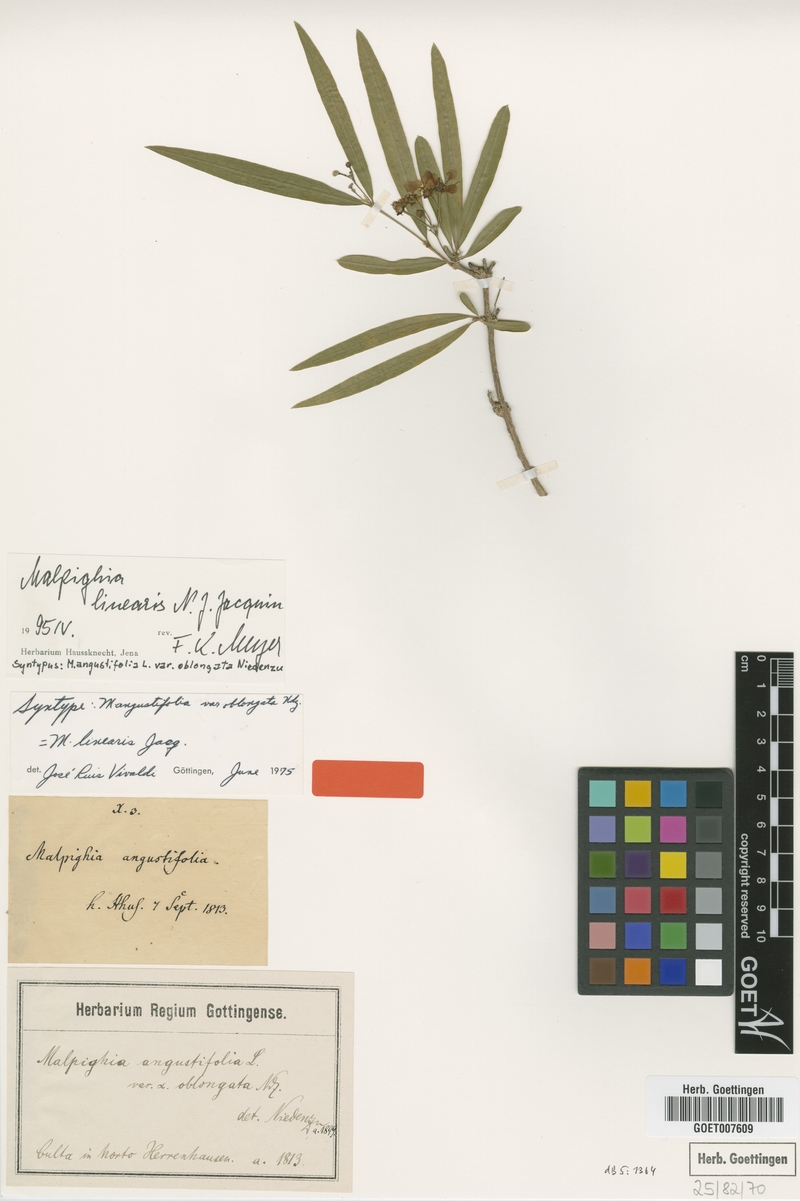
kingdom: Plantae
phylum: Tracheophyta
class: Magnoliopsida
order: Malpighiales
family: Malpighiaceae
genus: Malpighia
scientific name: Malpighia linearis
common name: Bastard cherry
